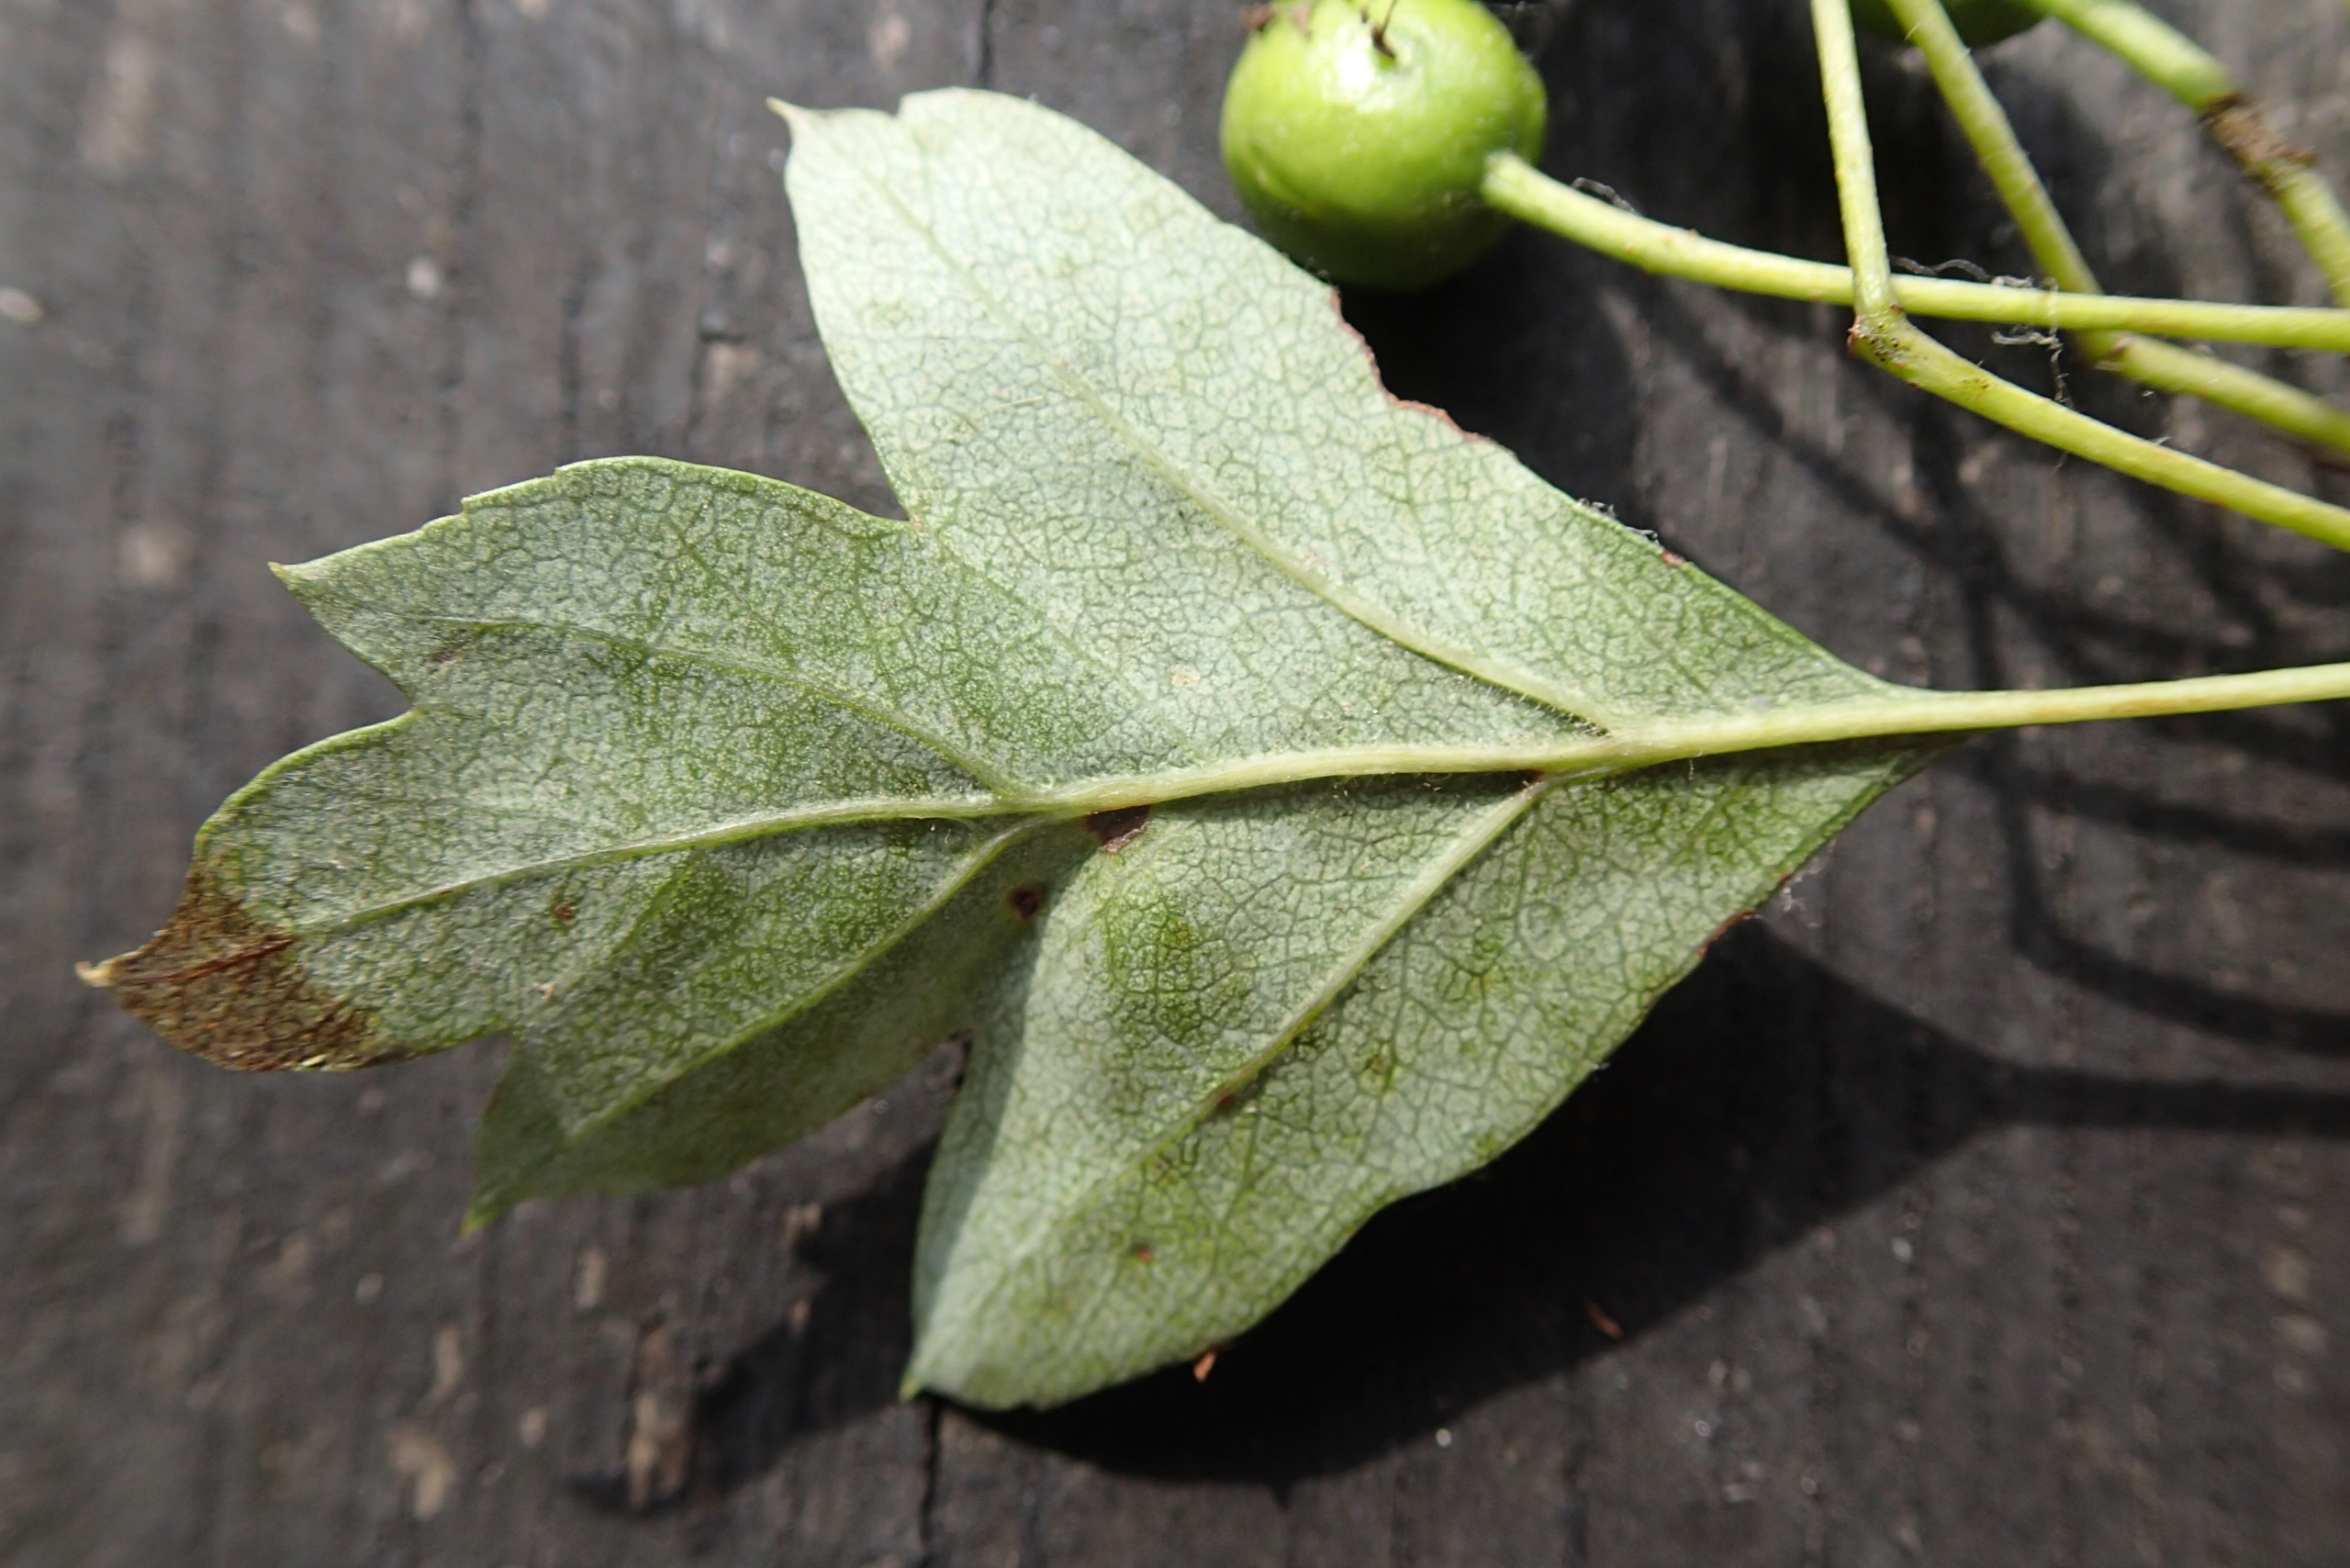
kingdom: Plantae
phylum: Tracheophyta
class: Magnoliopsida
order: Rosales
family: Rosaceae
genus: Crataegus
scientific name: Crataegus monogyna
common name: Engriflet hvidtjørn
